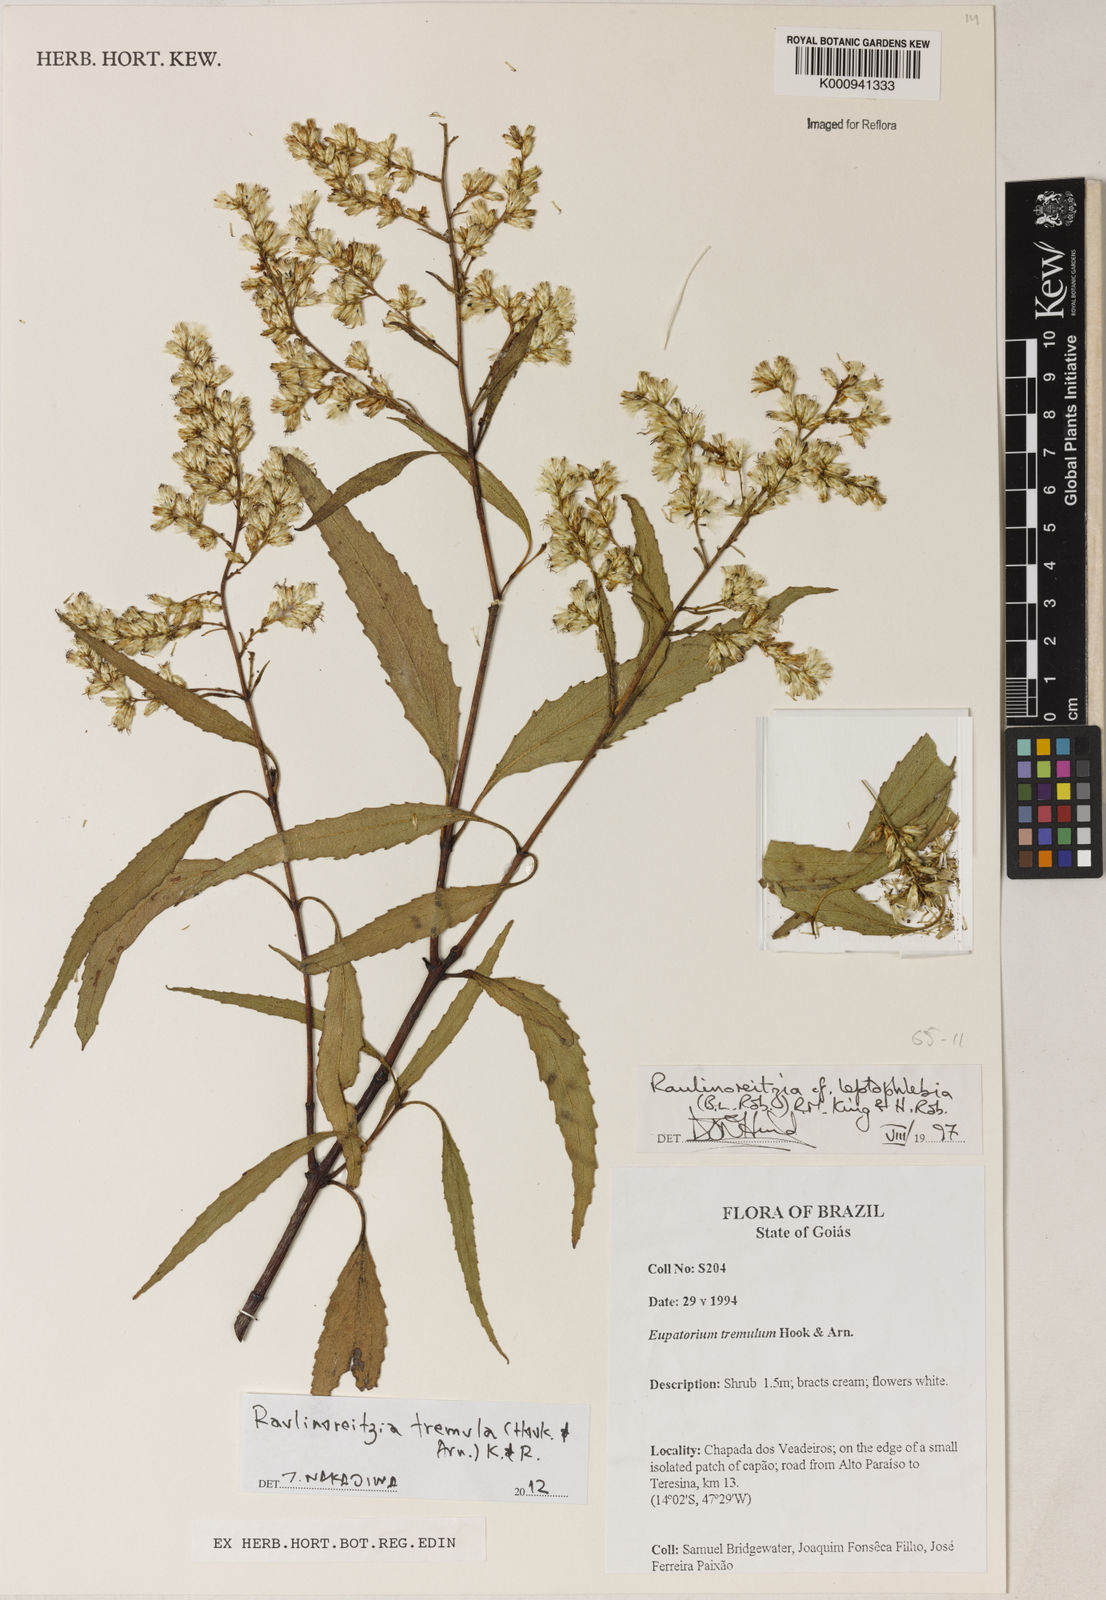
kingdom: Plantae
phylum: Tracheophyta
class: Magnoliopsida
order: Asterales
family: Asteraceae
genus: Raulinoreitzia
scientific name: Raulinoreitzia tremula
